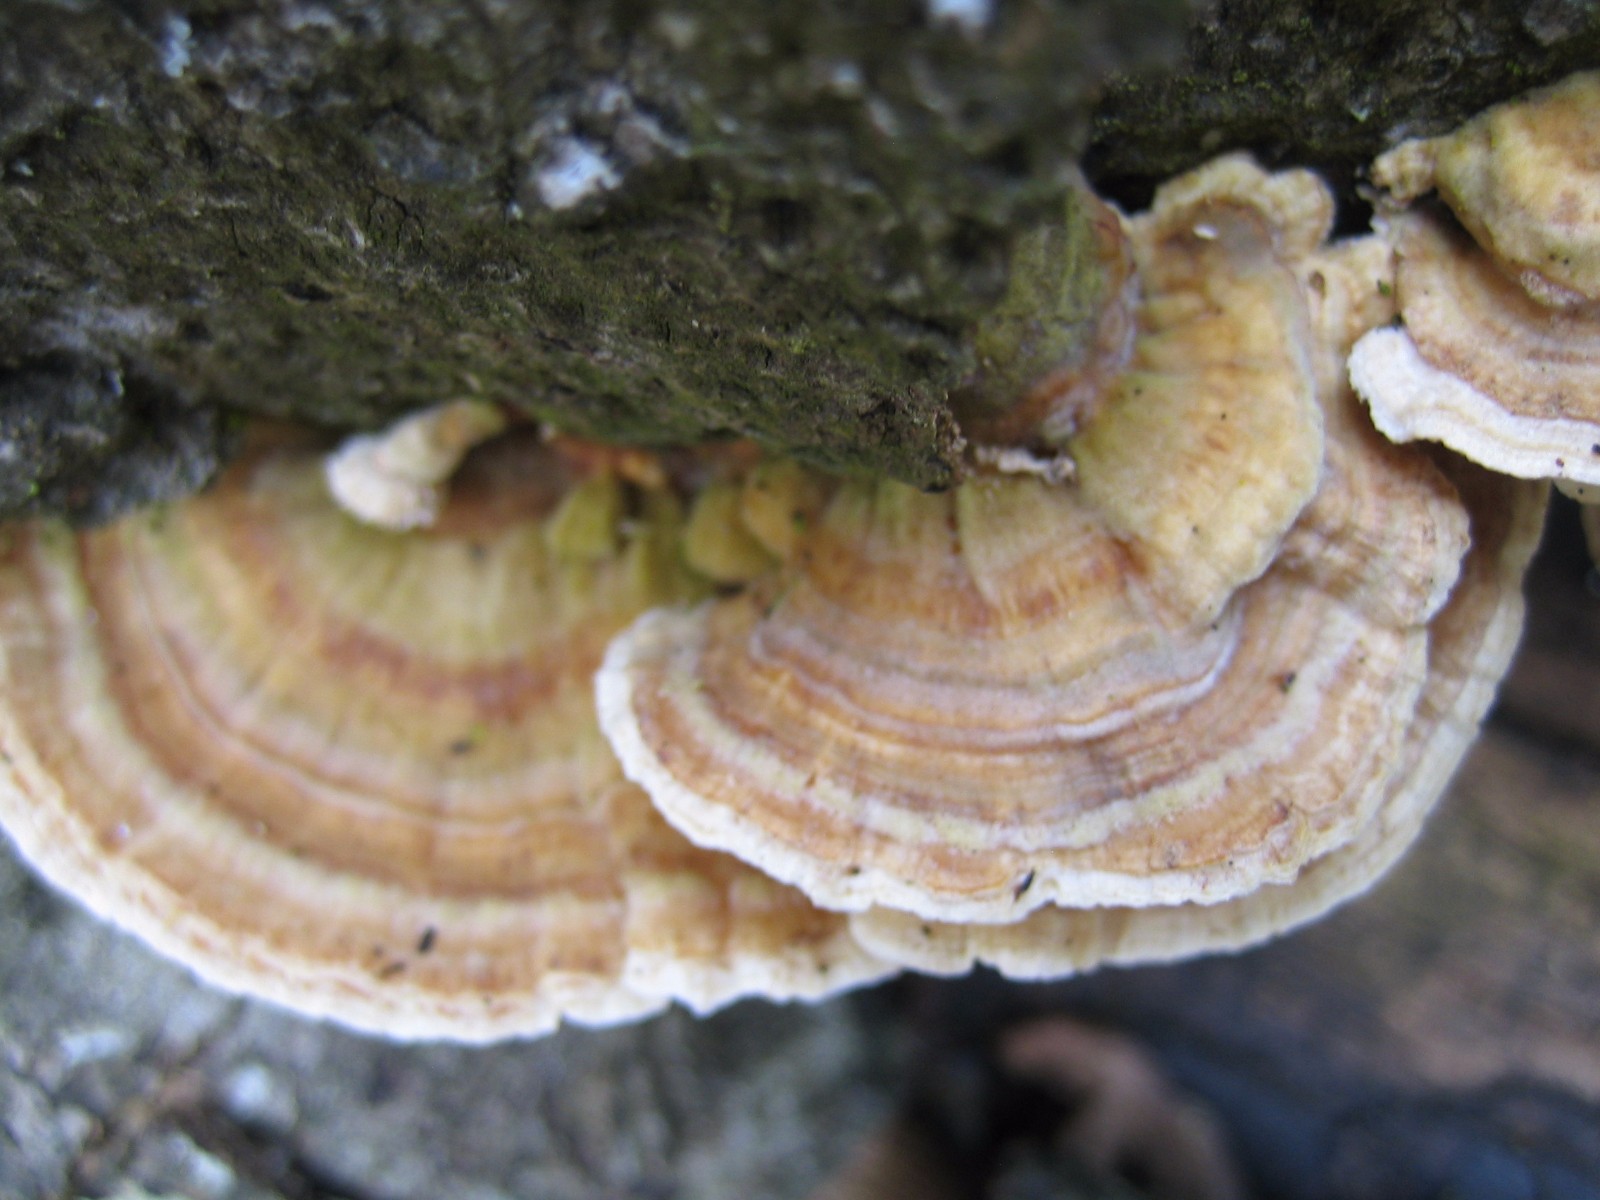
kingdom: Fungi
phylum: Basidiomycota
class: Agaricomycetes
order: Polyporales
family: Polyporaceae
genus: Trametes
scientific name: Trametes versicolor
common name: broget læderporesvamp
